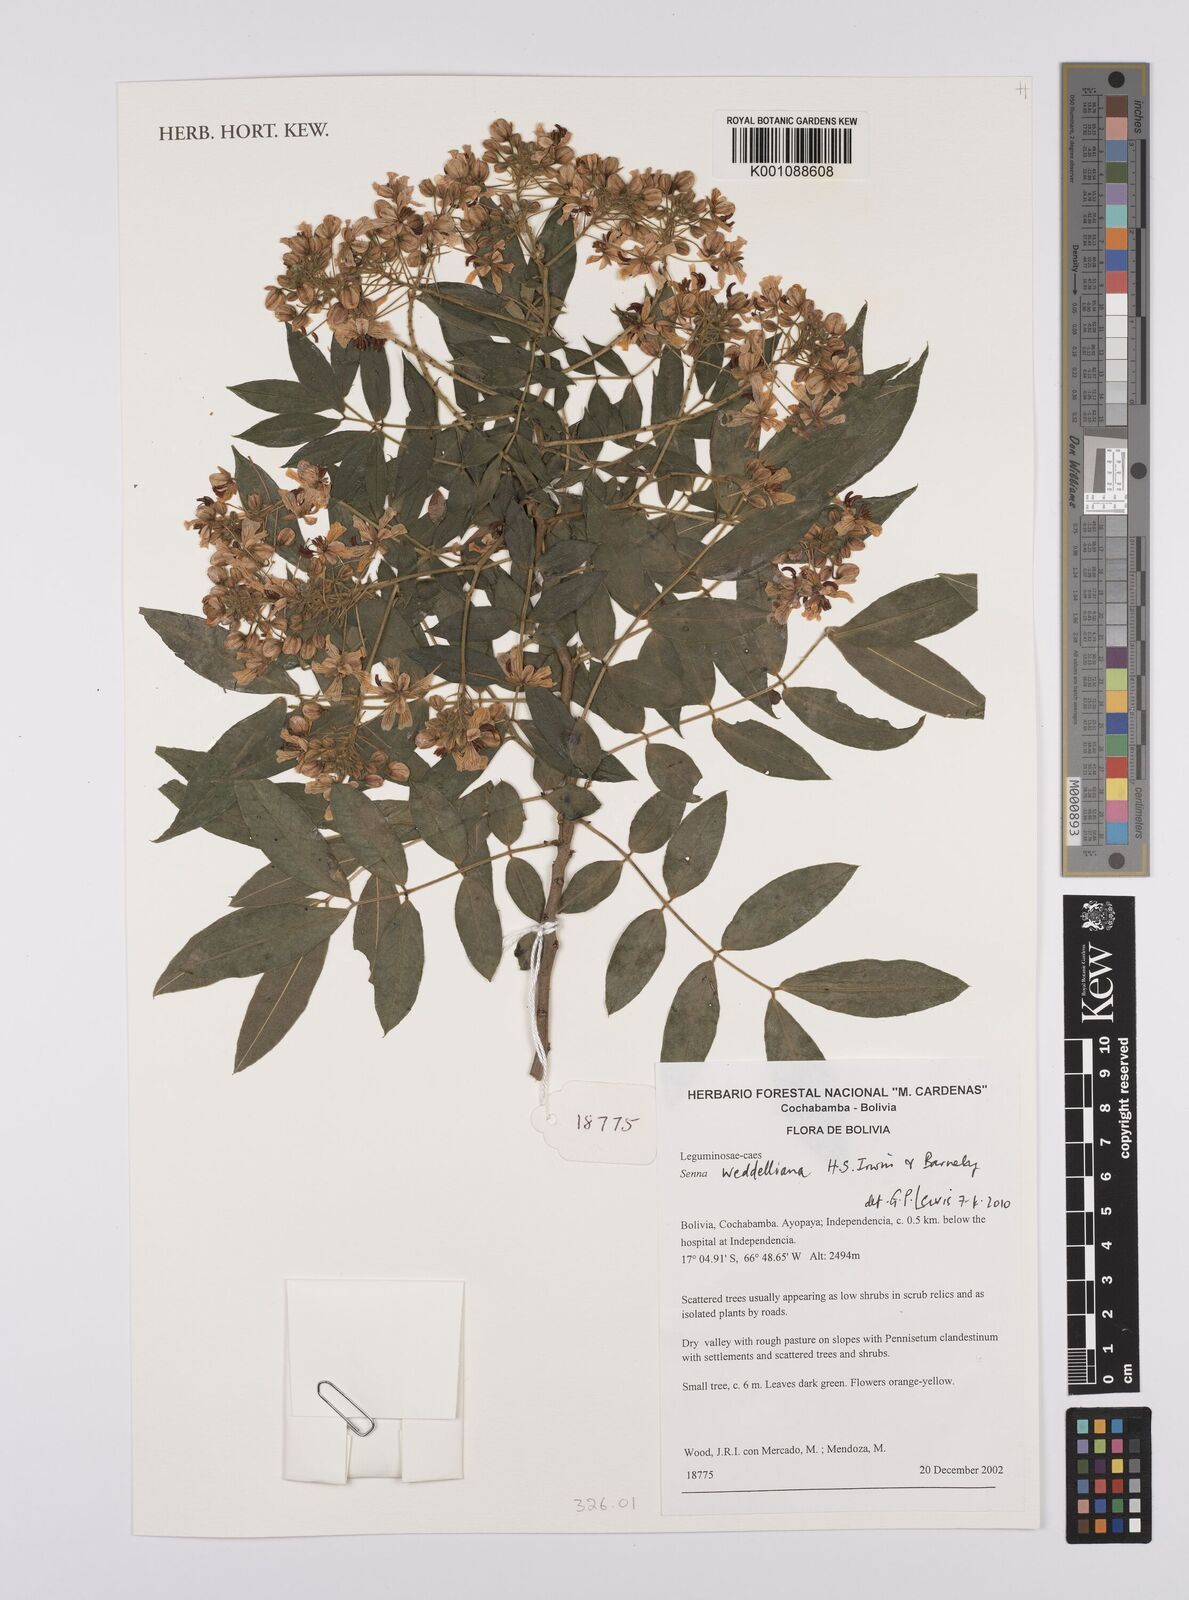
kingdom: Plantae
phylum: Tracheophyta
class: Magnoliopsida
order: Fabales
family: Fabaceae
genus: Senna
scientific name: Senna weddelliana
